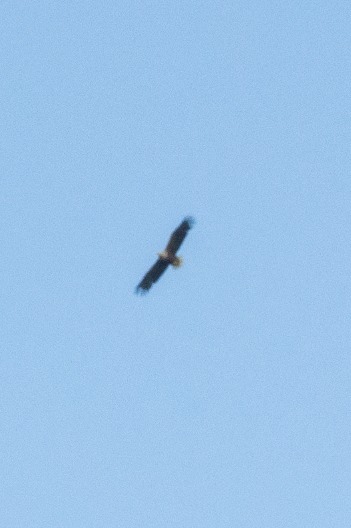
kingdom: Animalia
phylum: Chordata
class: Aves
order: Accipitriformes
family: Accipitridae
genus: Haliaeetus
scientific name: Haliaeetus albicilla
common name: Havørn
